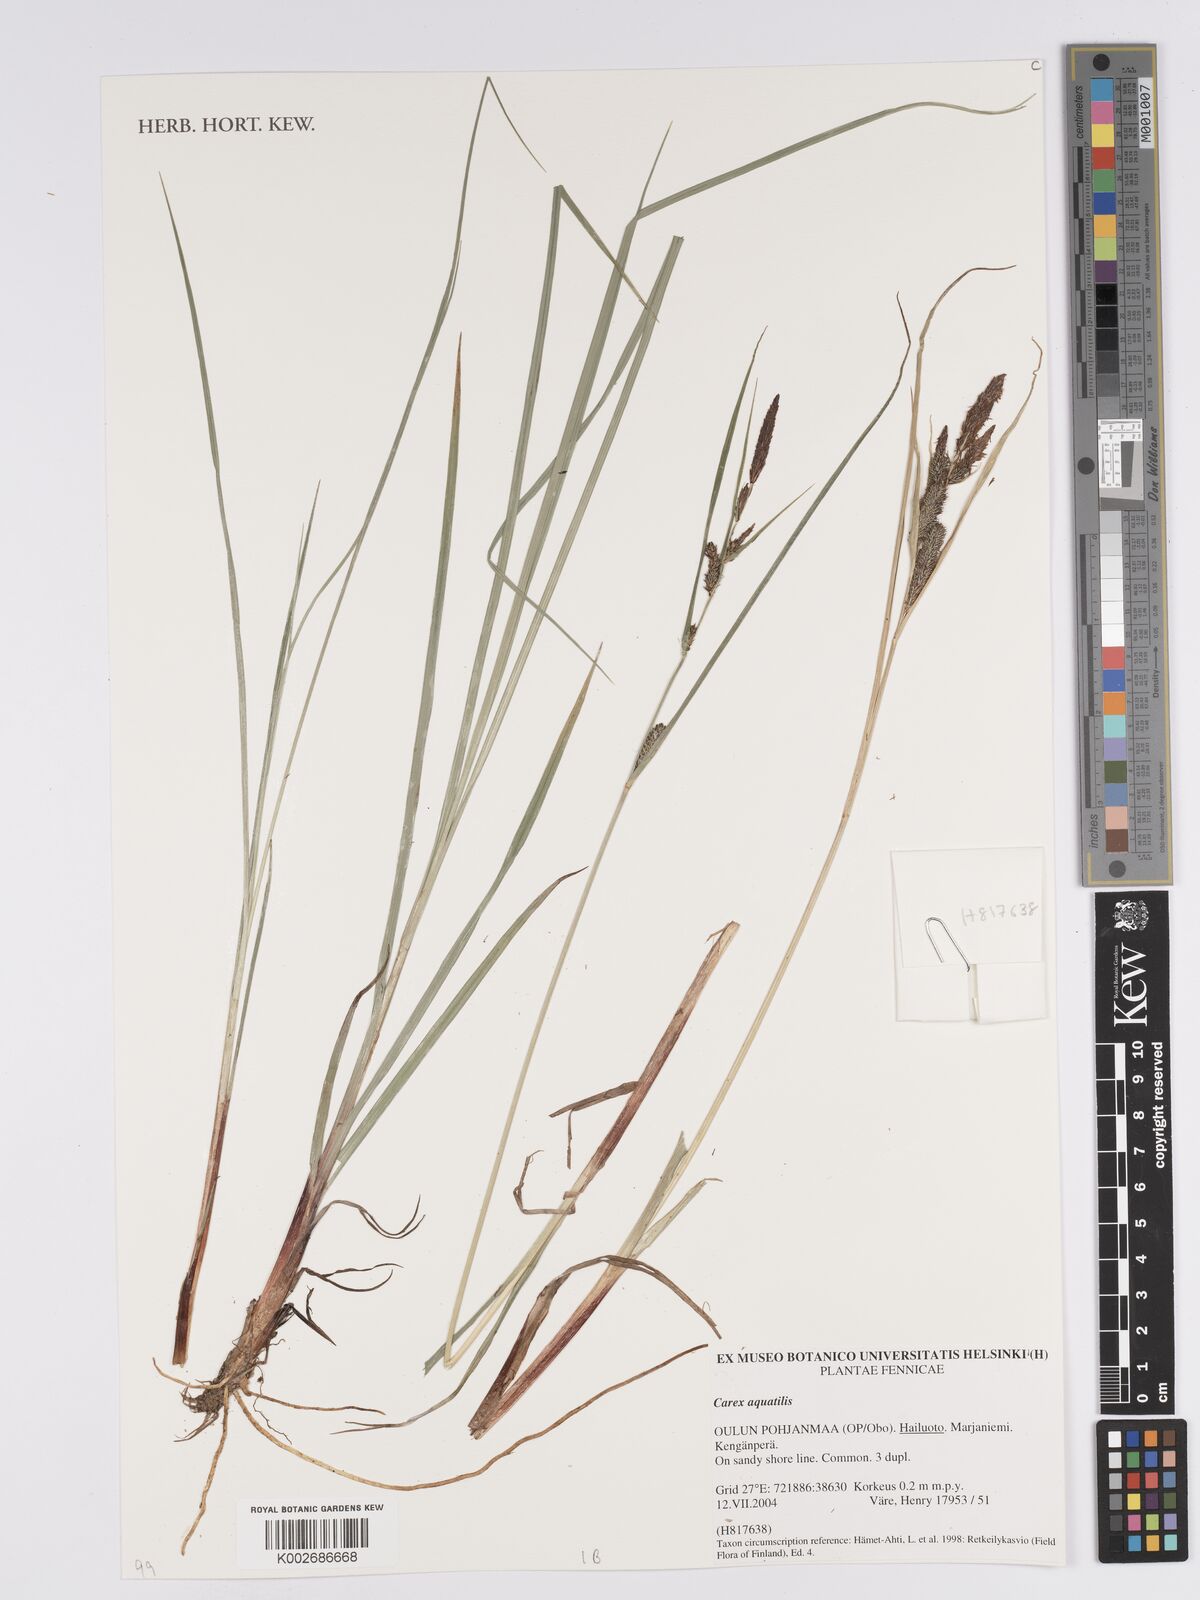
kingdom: Plantae
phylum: Tracheophyta
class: Liliopsida
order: Poales
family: Cyperaceae
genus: Carex
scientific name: Carex aquatilis
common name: Water sedge
